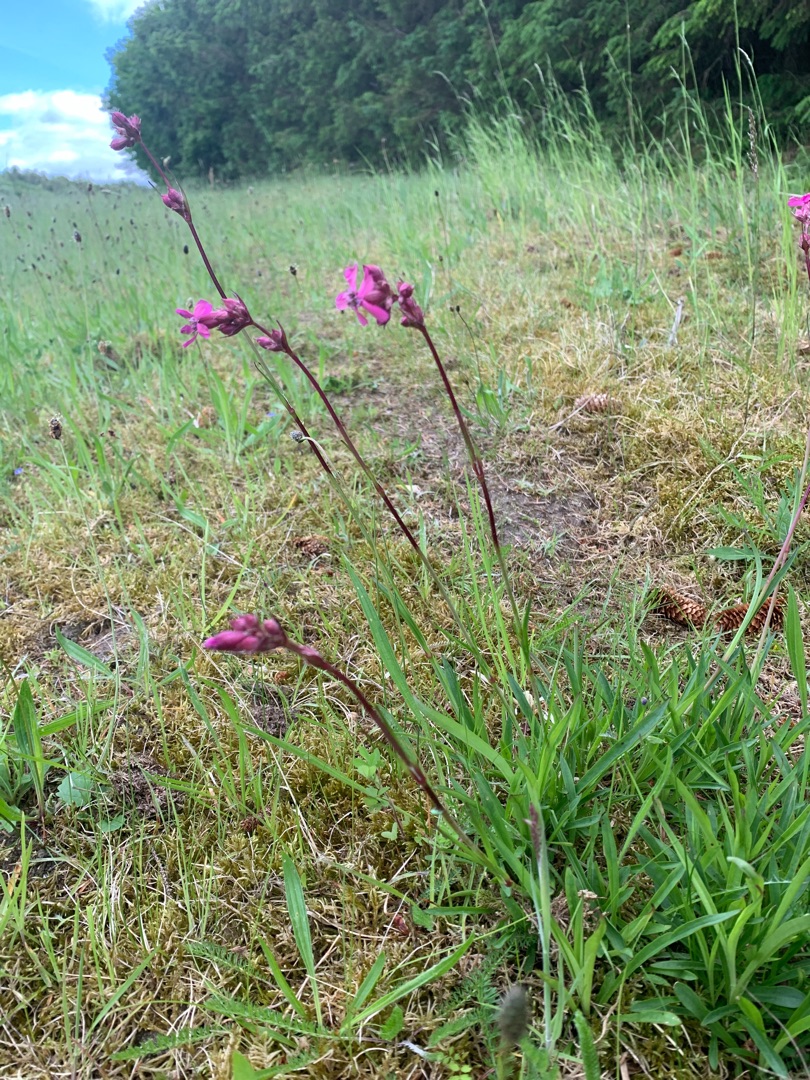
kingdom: Plantae
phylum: Tracheophyta
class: Magnoliopsida
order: Caryophyllales
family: Caryophyllaceae
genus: Viscaria
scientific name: Viscaria vulgaris
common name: Tjærenellike
